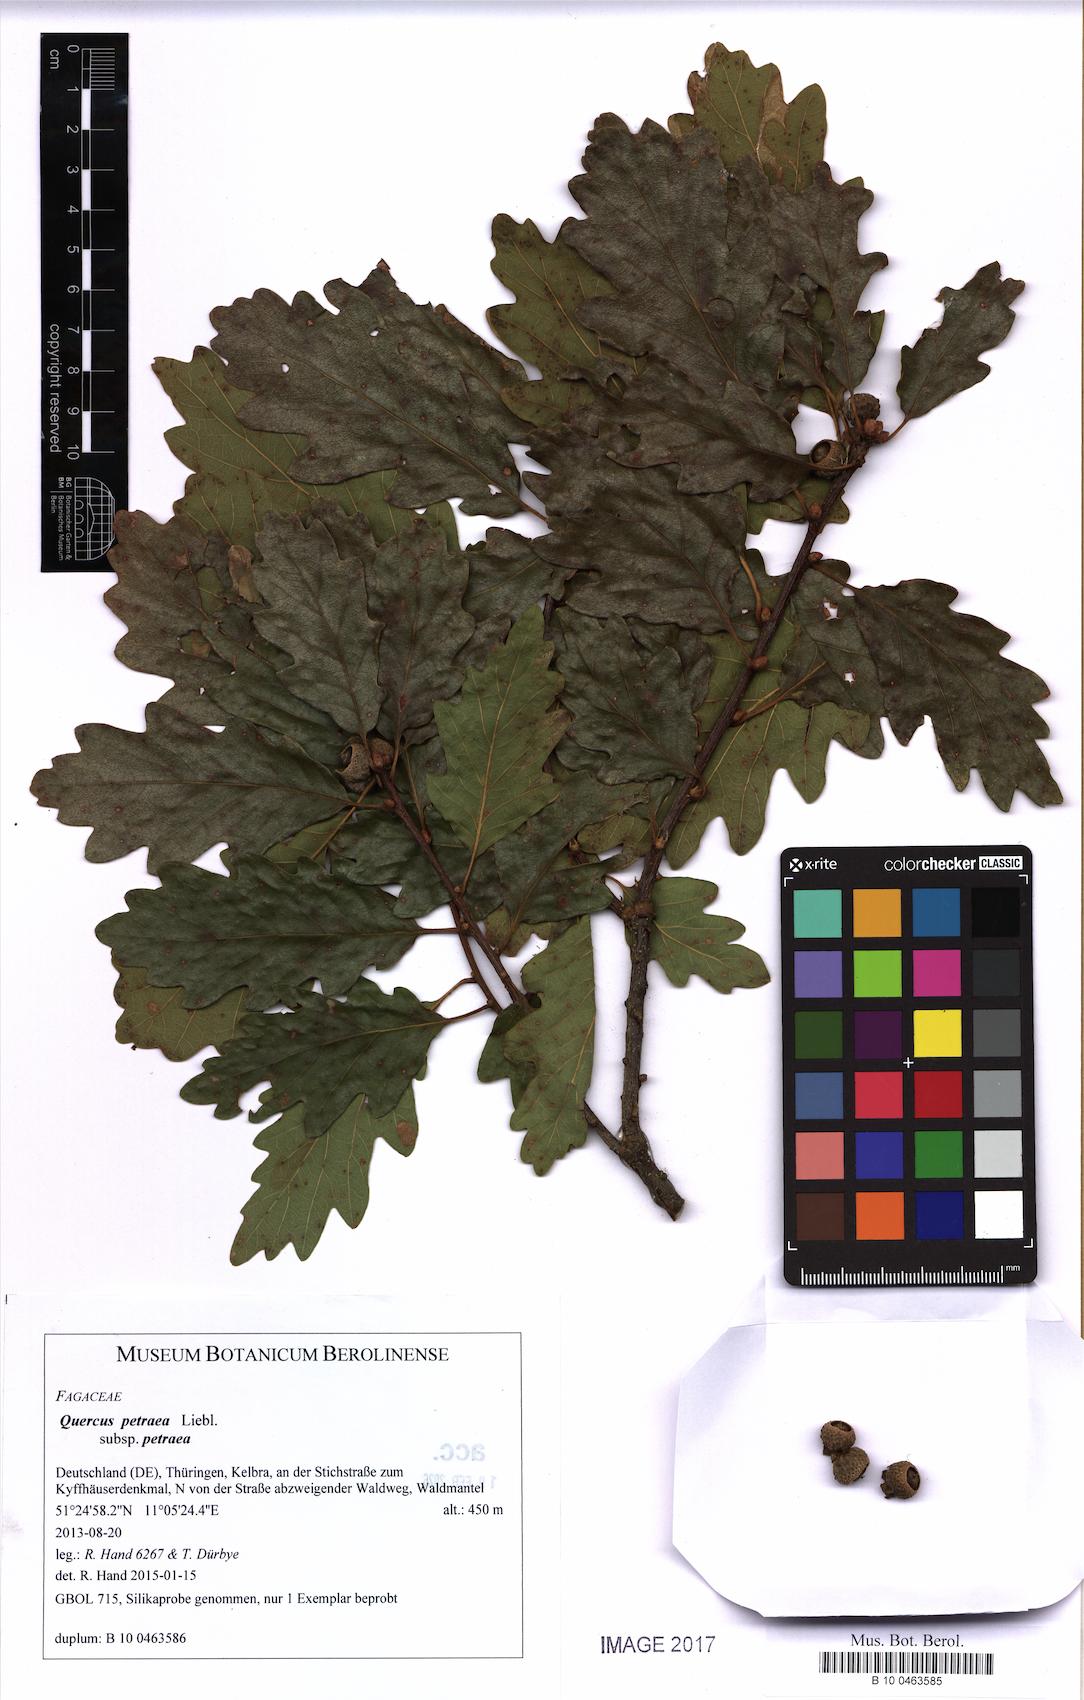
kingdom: Plantae
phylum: Tracheophyta
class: Magnoliopsida
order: Fagales
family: Fagaceae
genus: Quercus
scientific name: Quercus petraea
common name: Sessile oak
